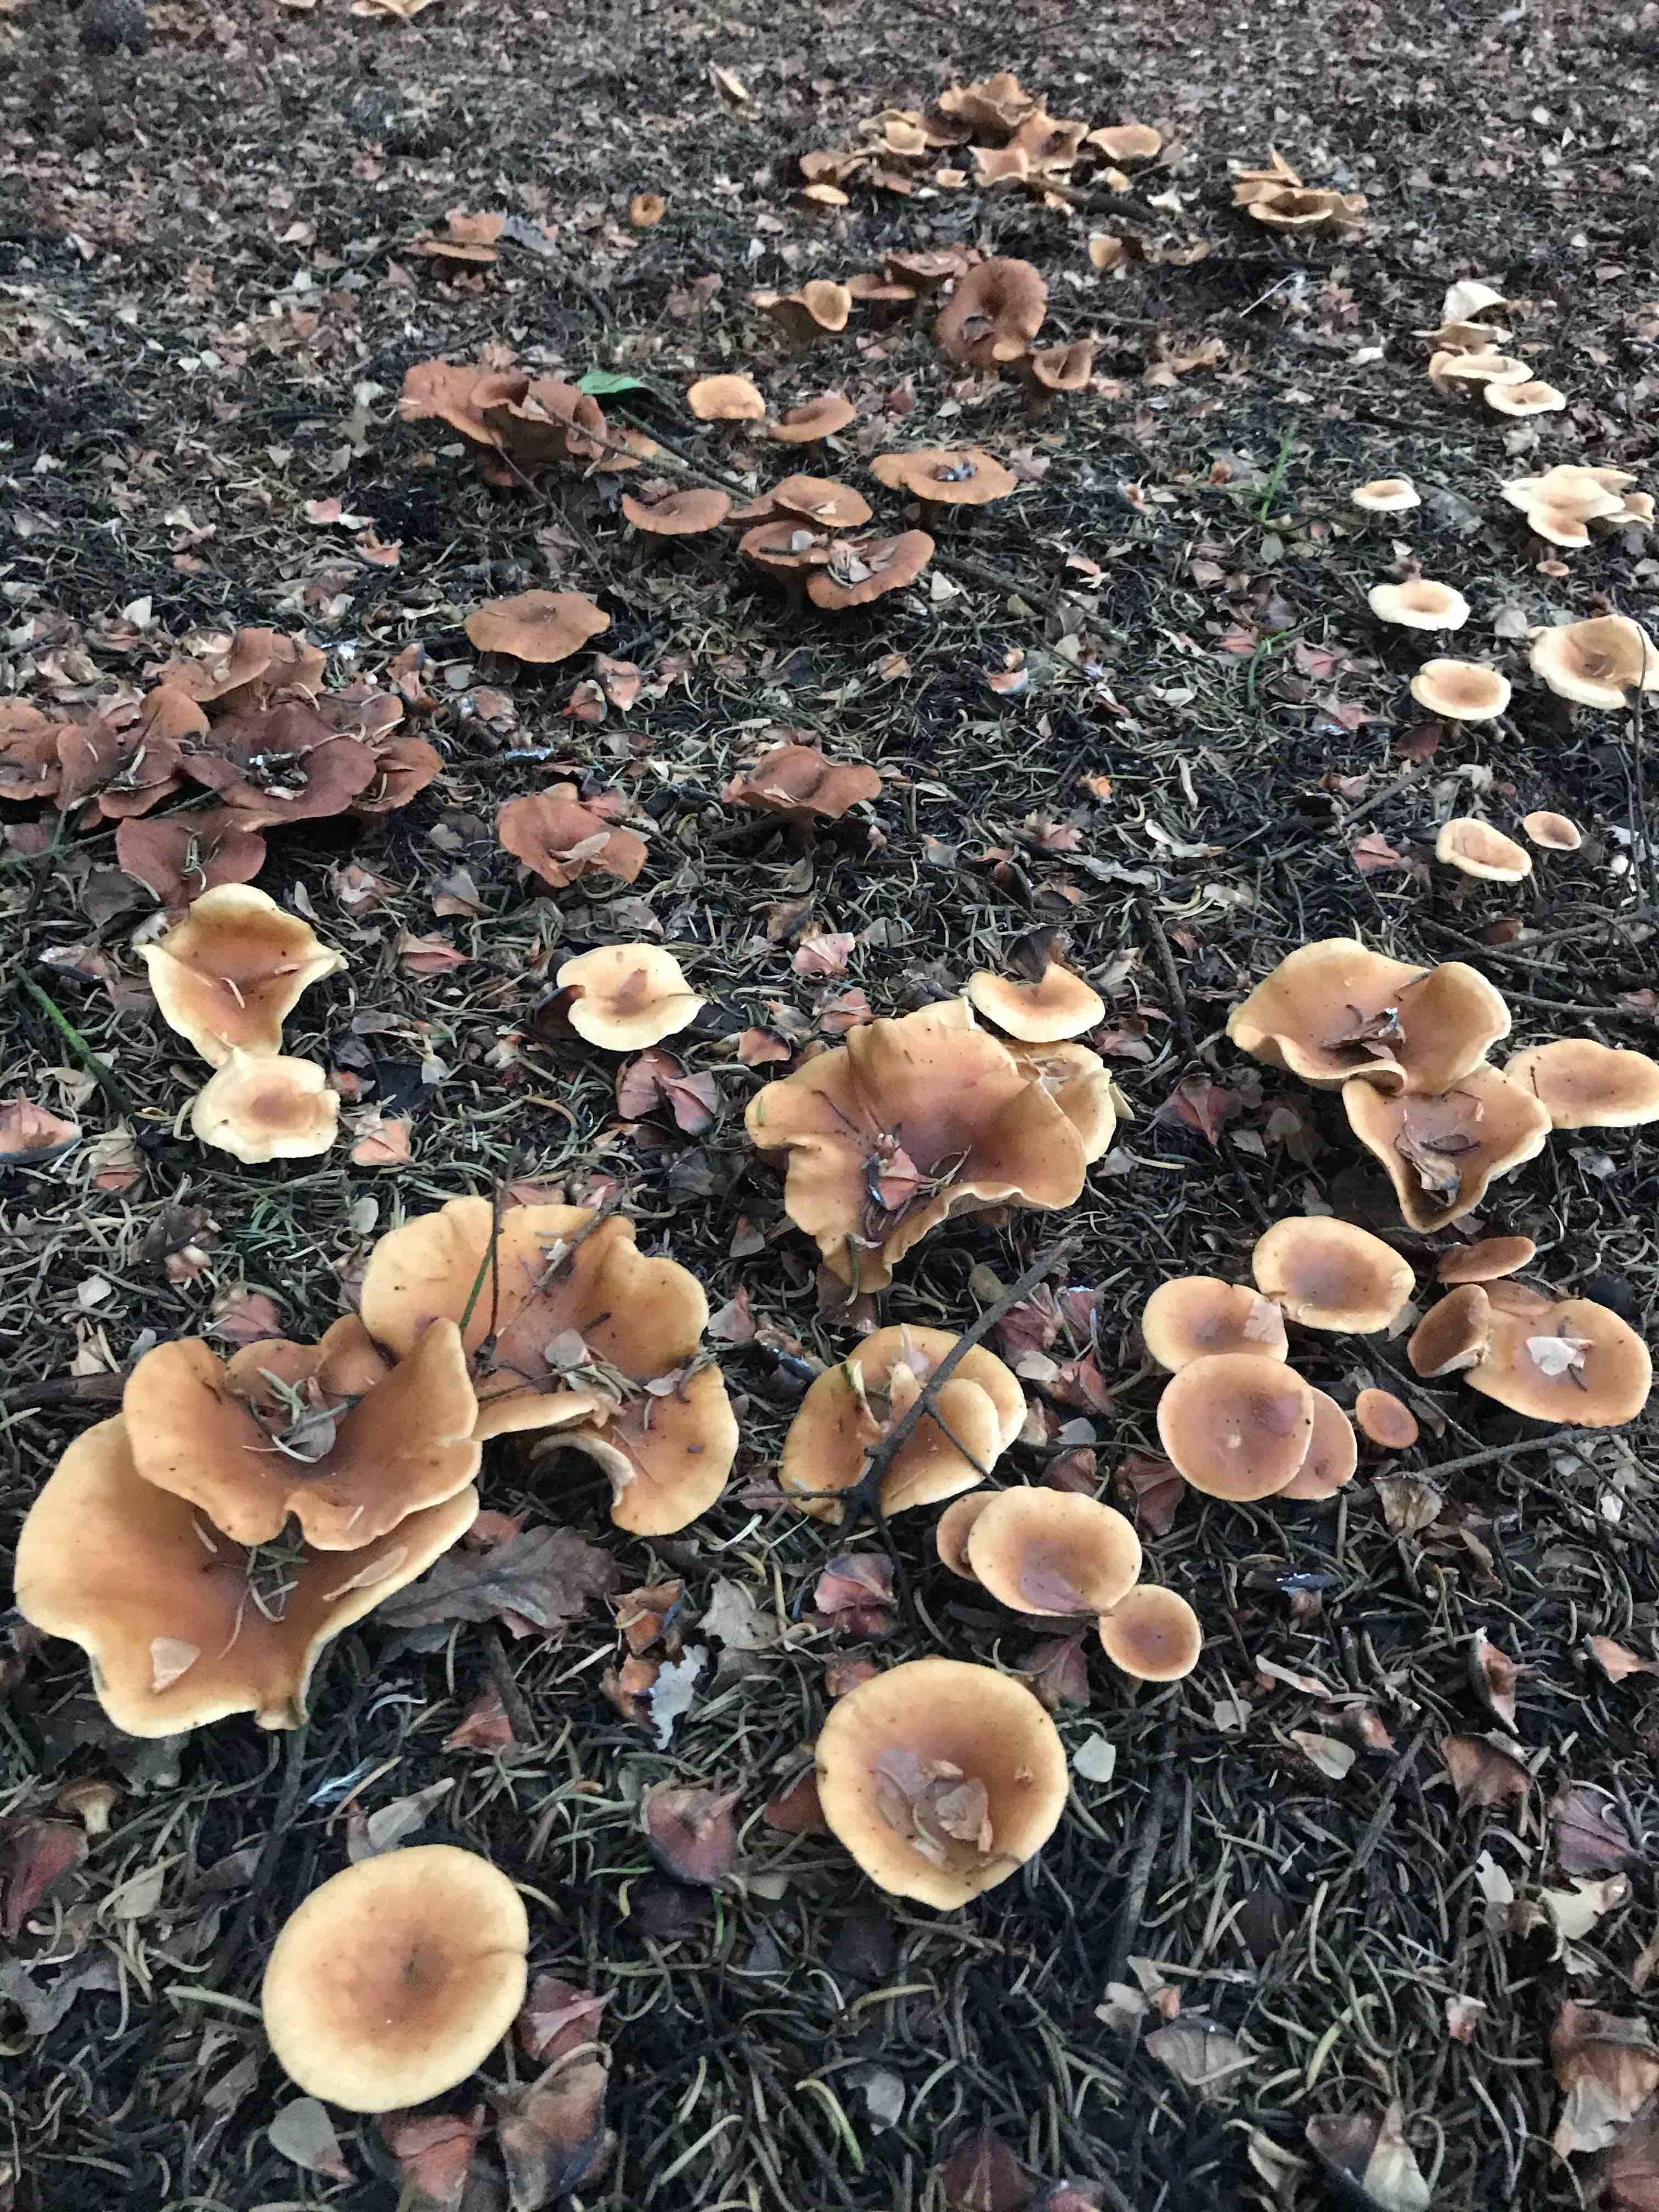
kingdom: Fungi
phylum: Basidiomycota
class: Agaricomycetes
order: Agaricales
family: Tricholomataceae
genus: Paralepista
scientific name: Paralepista flaccida
